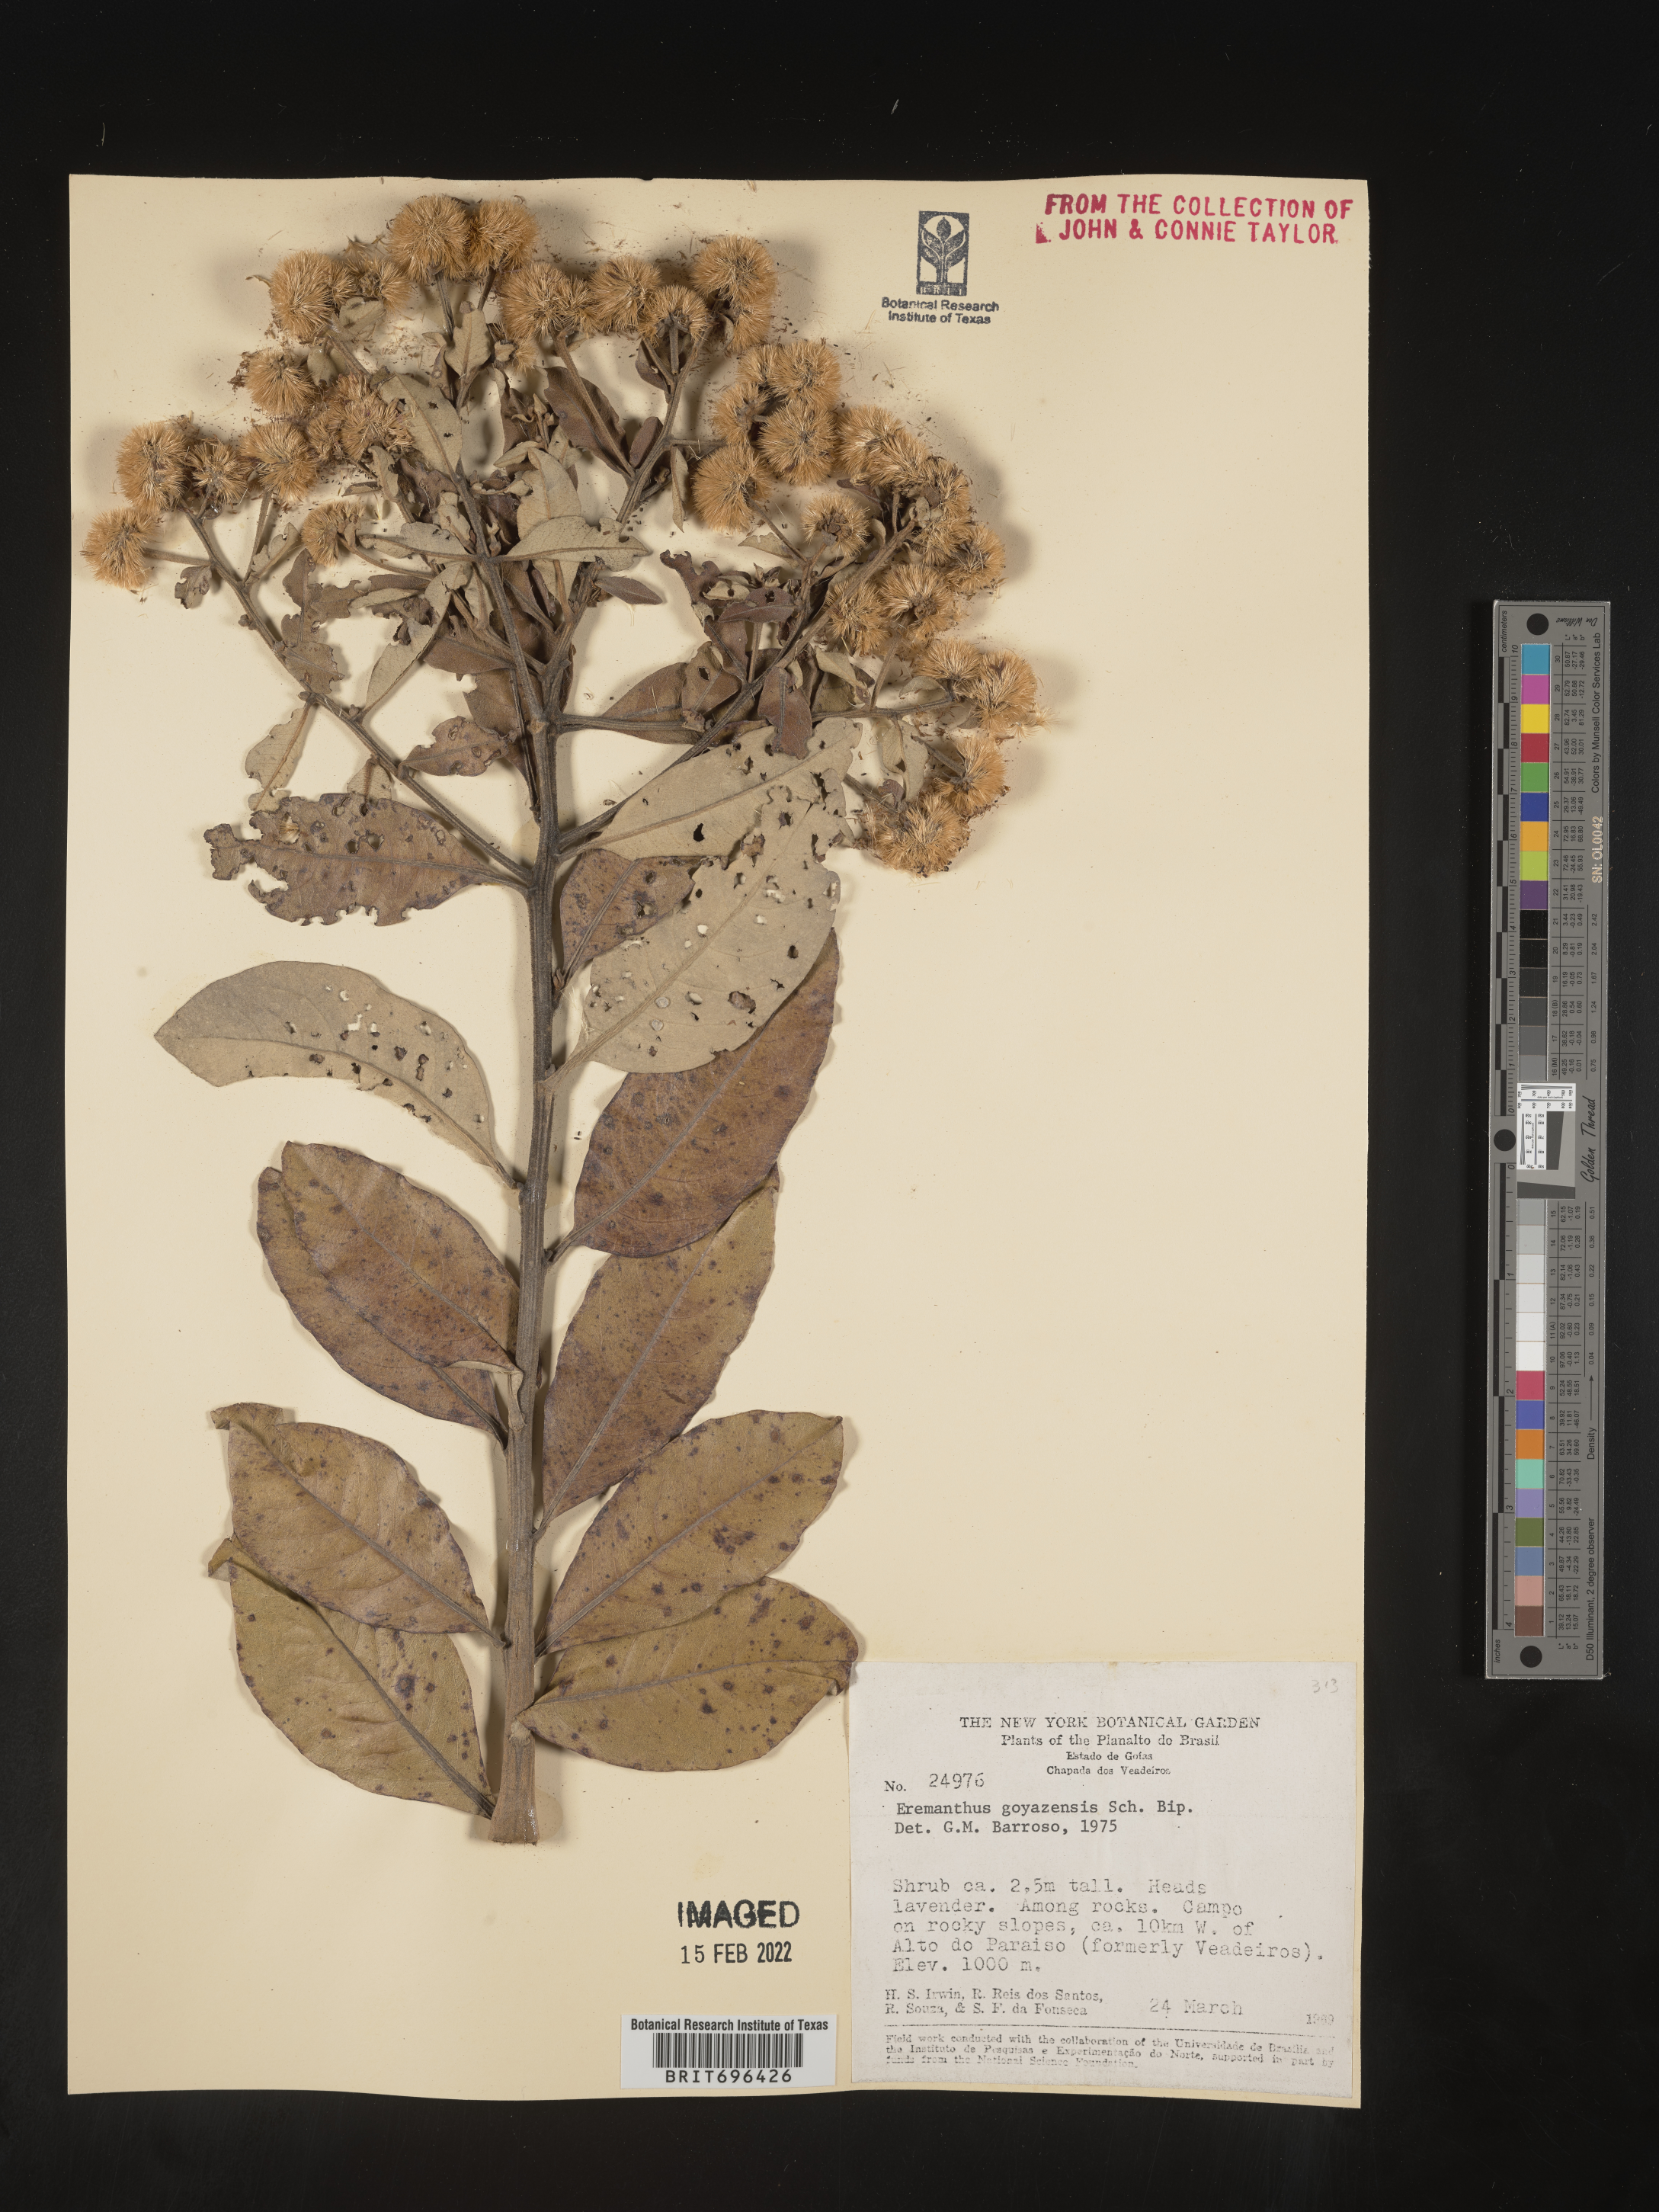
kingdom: Plantae
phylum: Tracheophyta
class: Magnoliopsida
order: Asterales
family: Asteraceae
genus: Eremanthus
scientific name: Eremanthus
